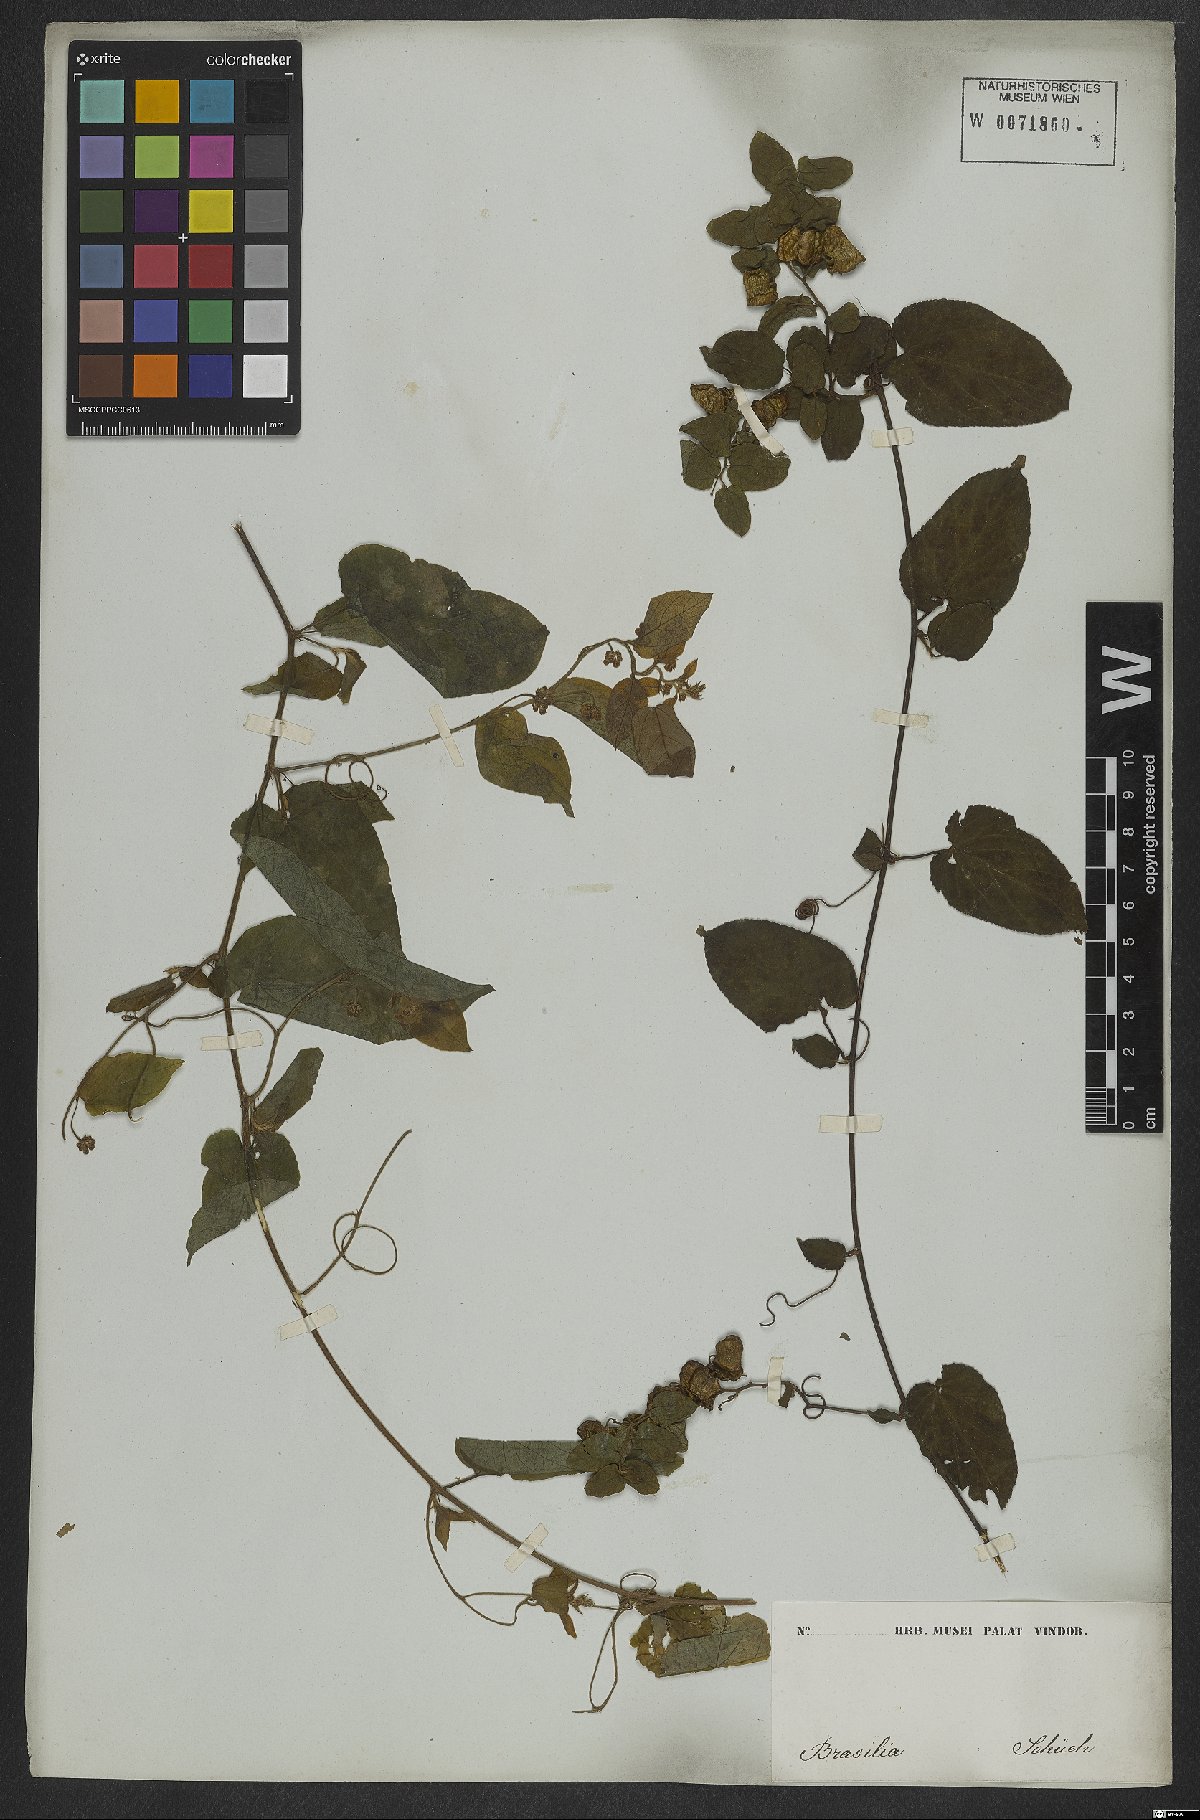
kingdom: Plantae
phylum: Tracheophyta
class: Magnoliopsida
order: Rosales
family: Rhamnaceae
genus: Reissekia
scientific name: Reissekia smilacina
